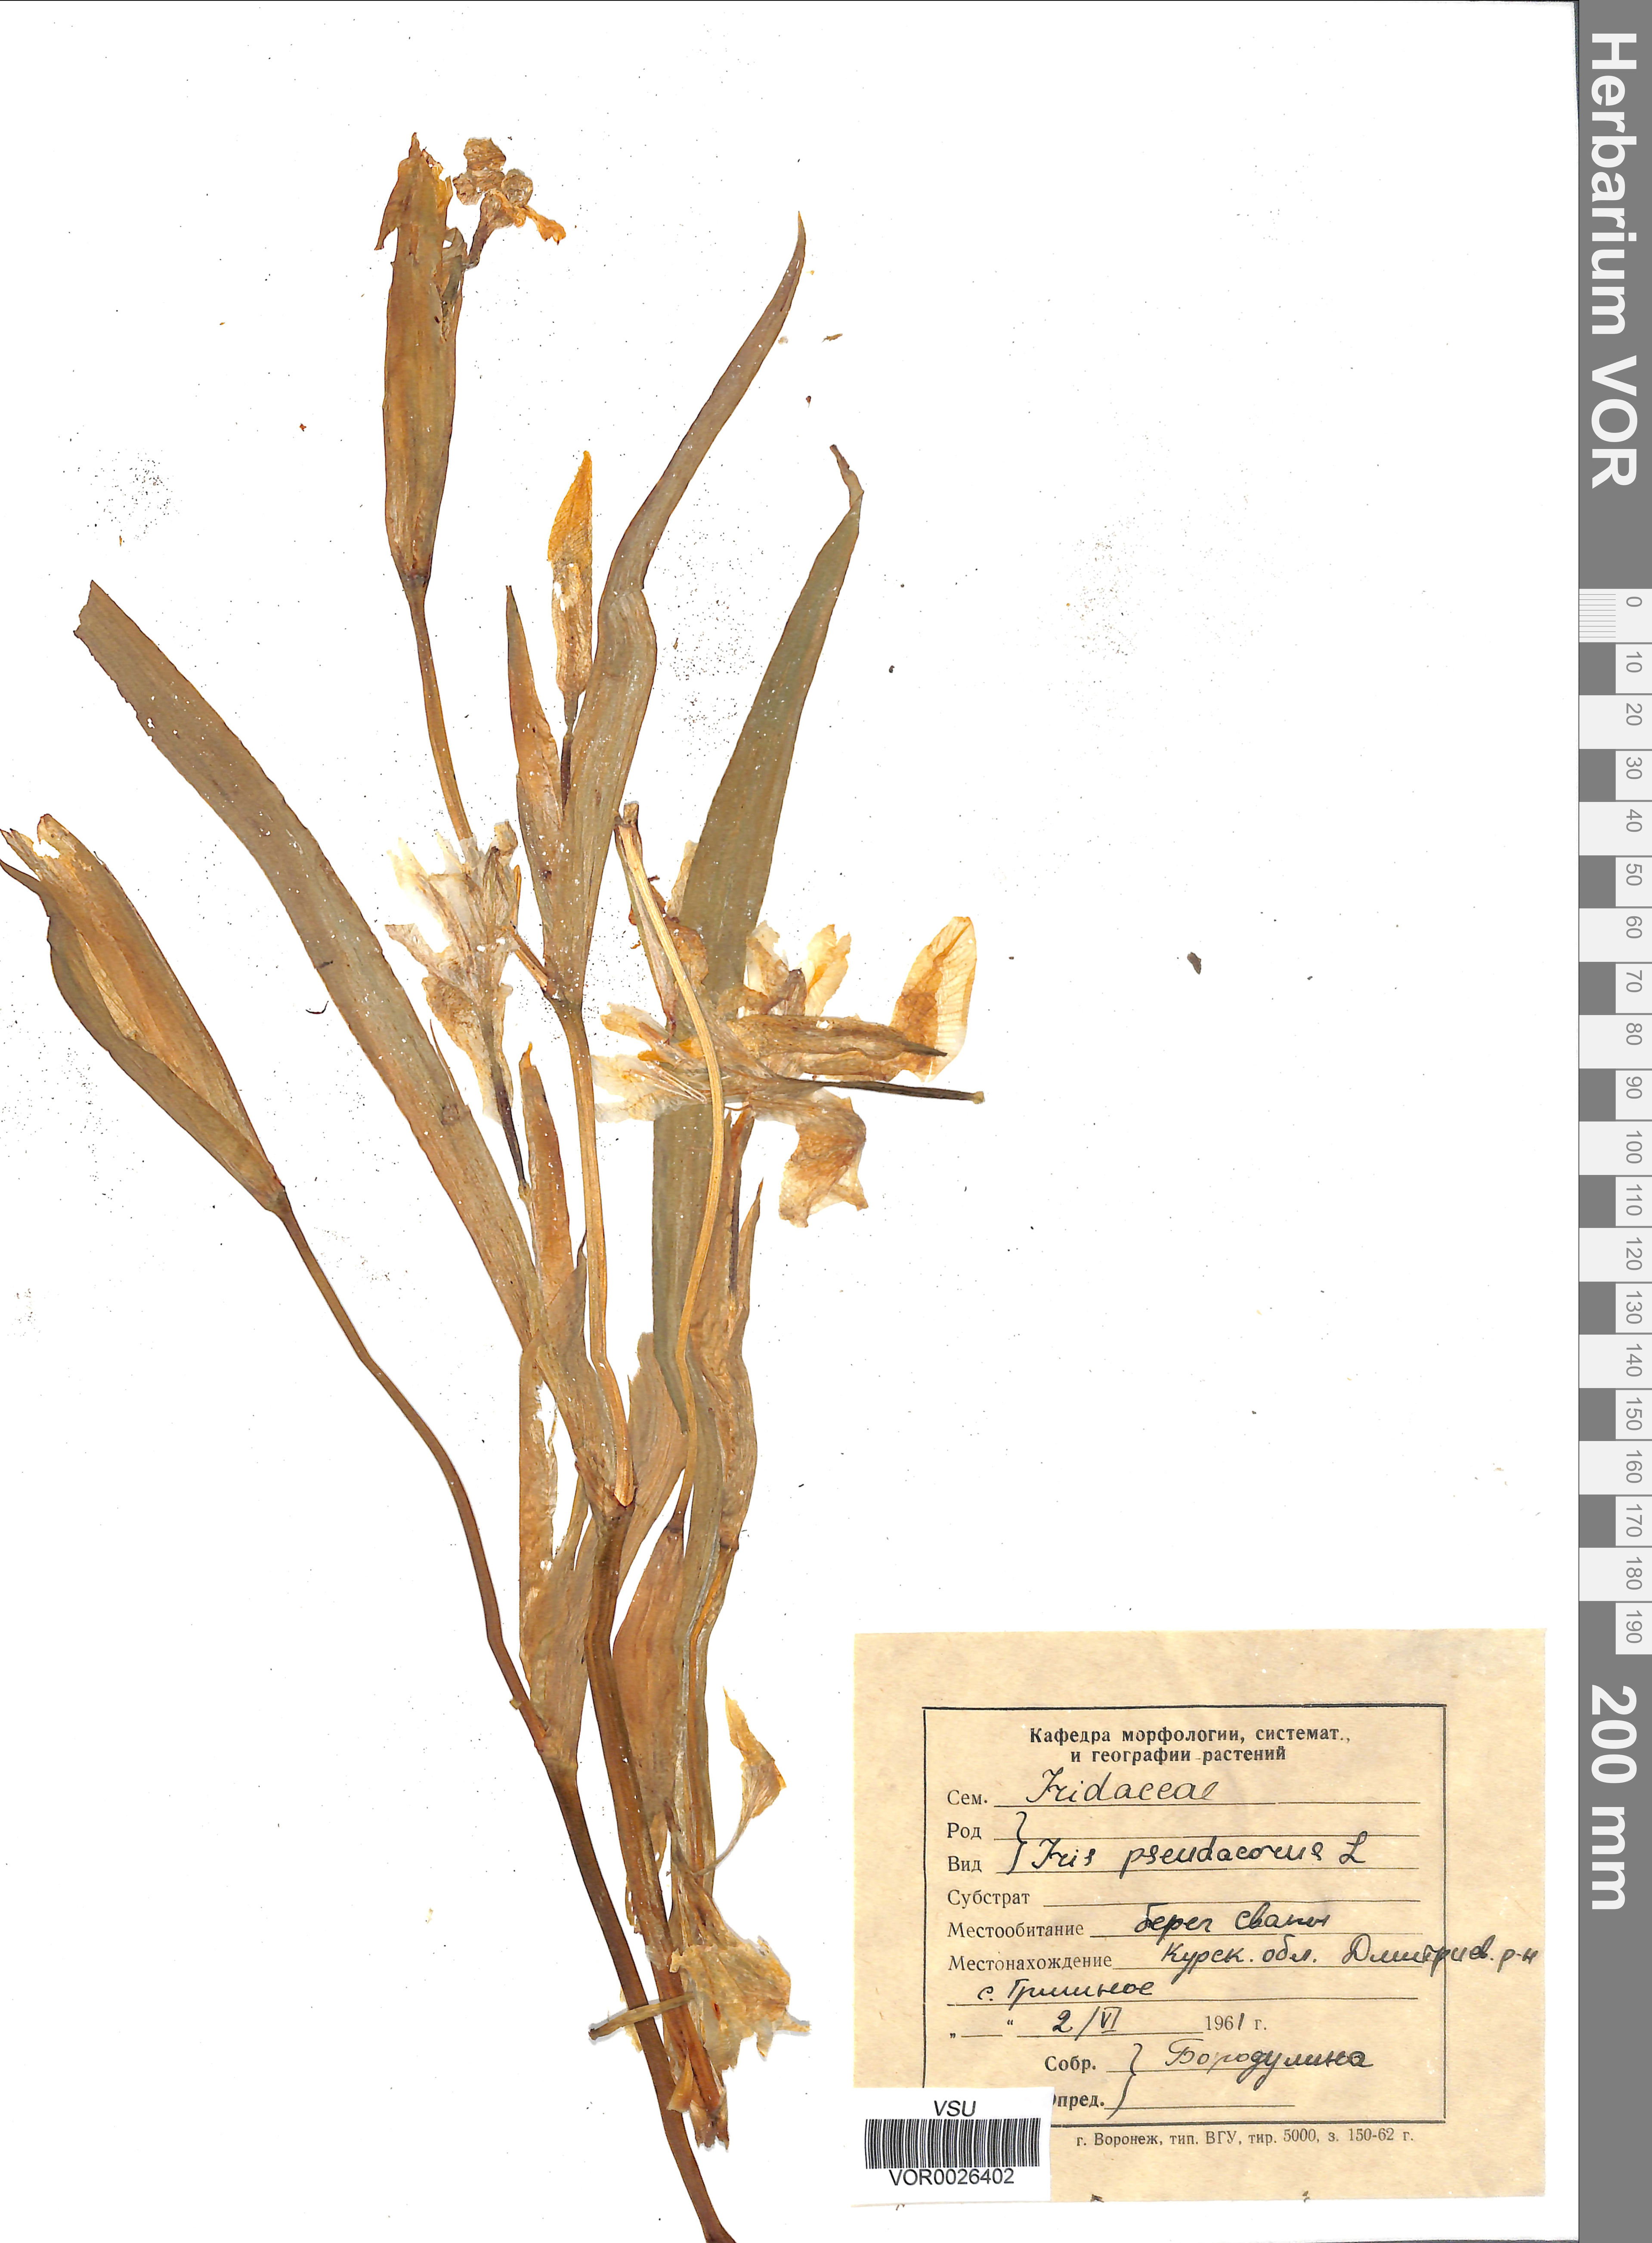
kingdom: Plantae
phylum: Tracheophyta
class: Liliopsida
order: Asparagales
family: Iridaceae
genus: Iris
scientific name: Iris pseudacorus
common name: Yellow flag
